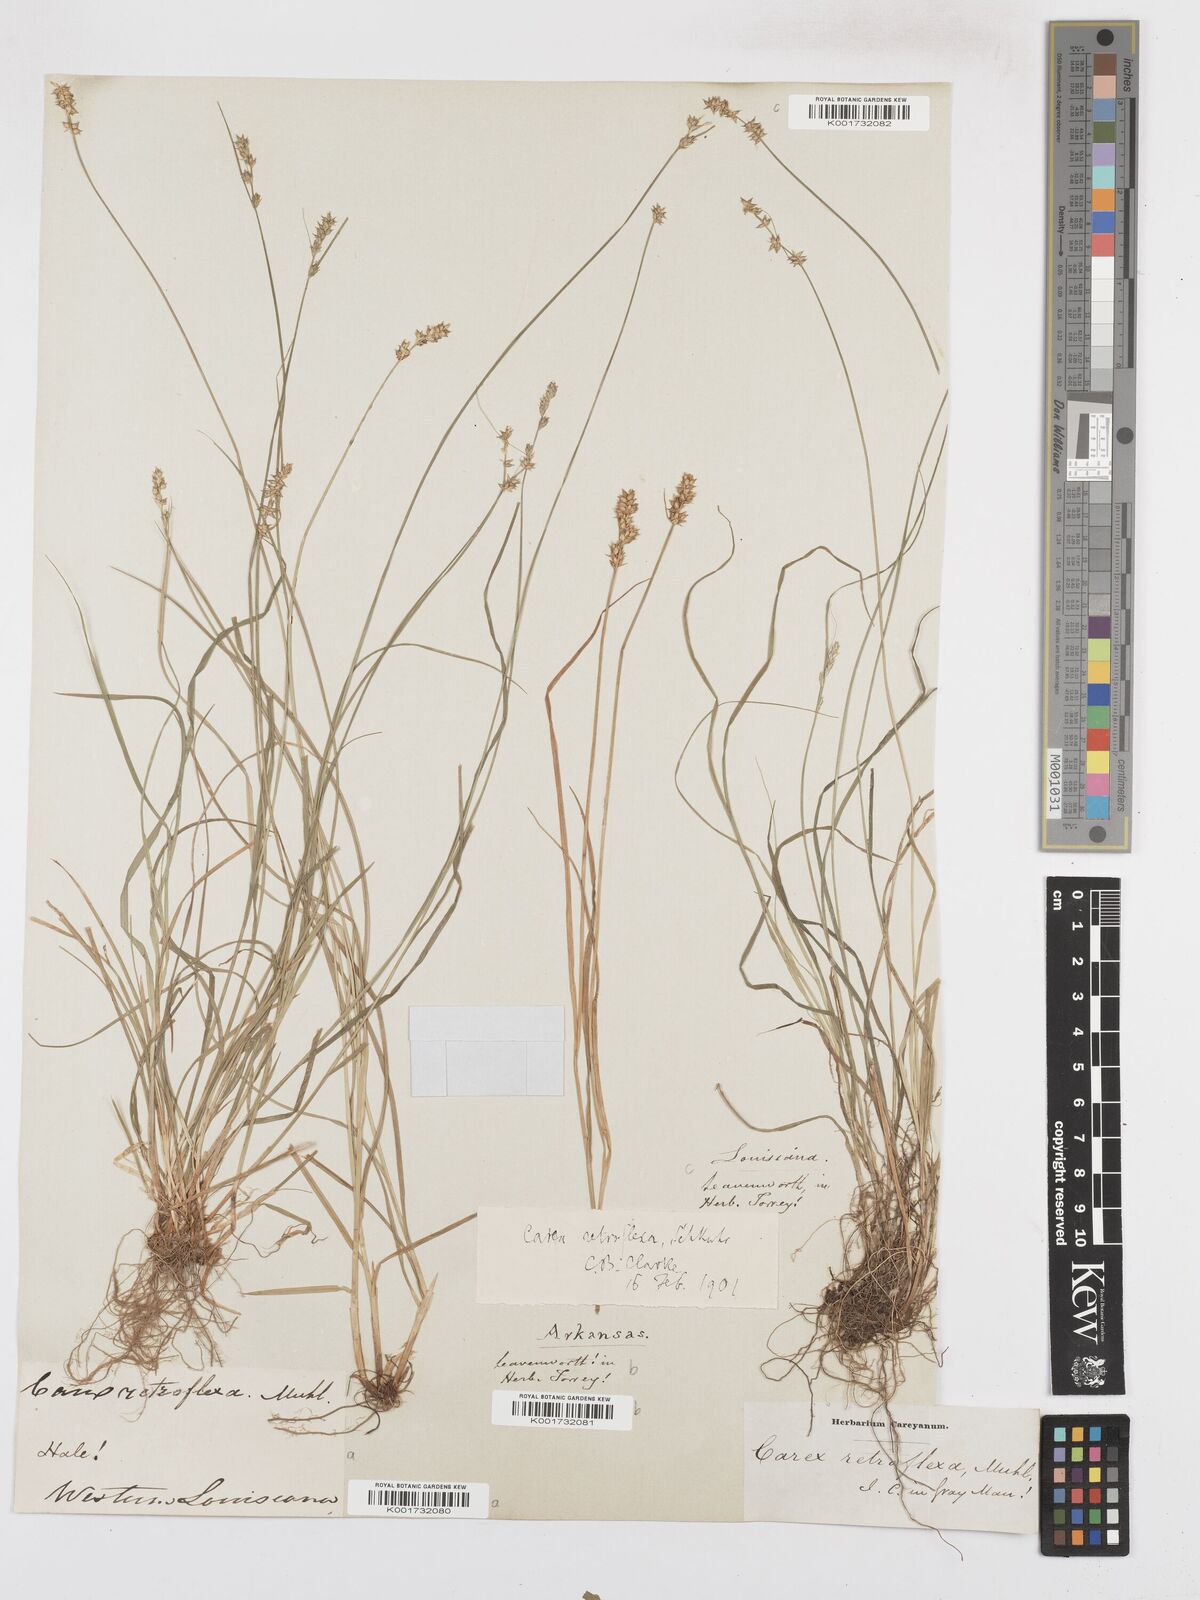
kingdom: Plantae
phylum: Tracheophyta
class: Liliopsida
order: Poales
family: Cyperaceae
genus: Carex
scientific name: Carex retroflexa
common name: Reflexed sedge
